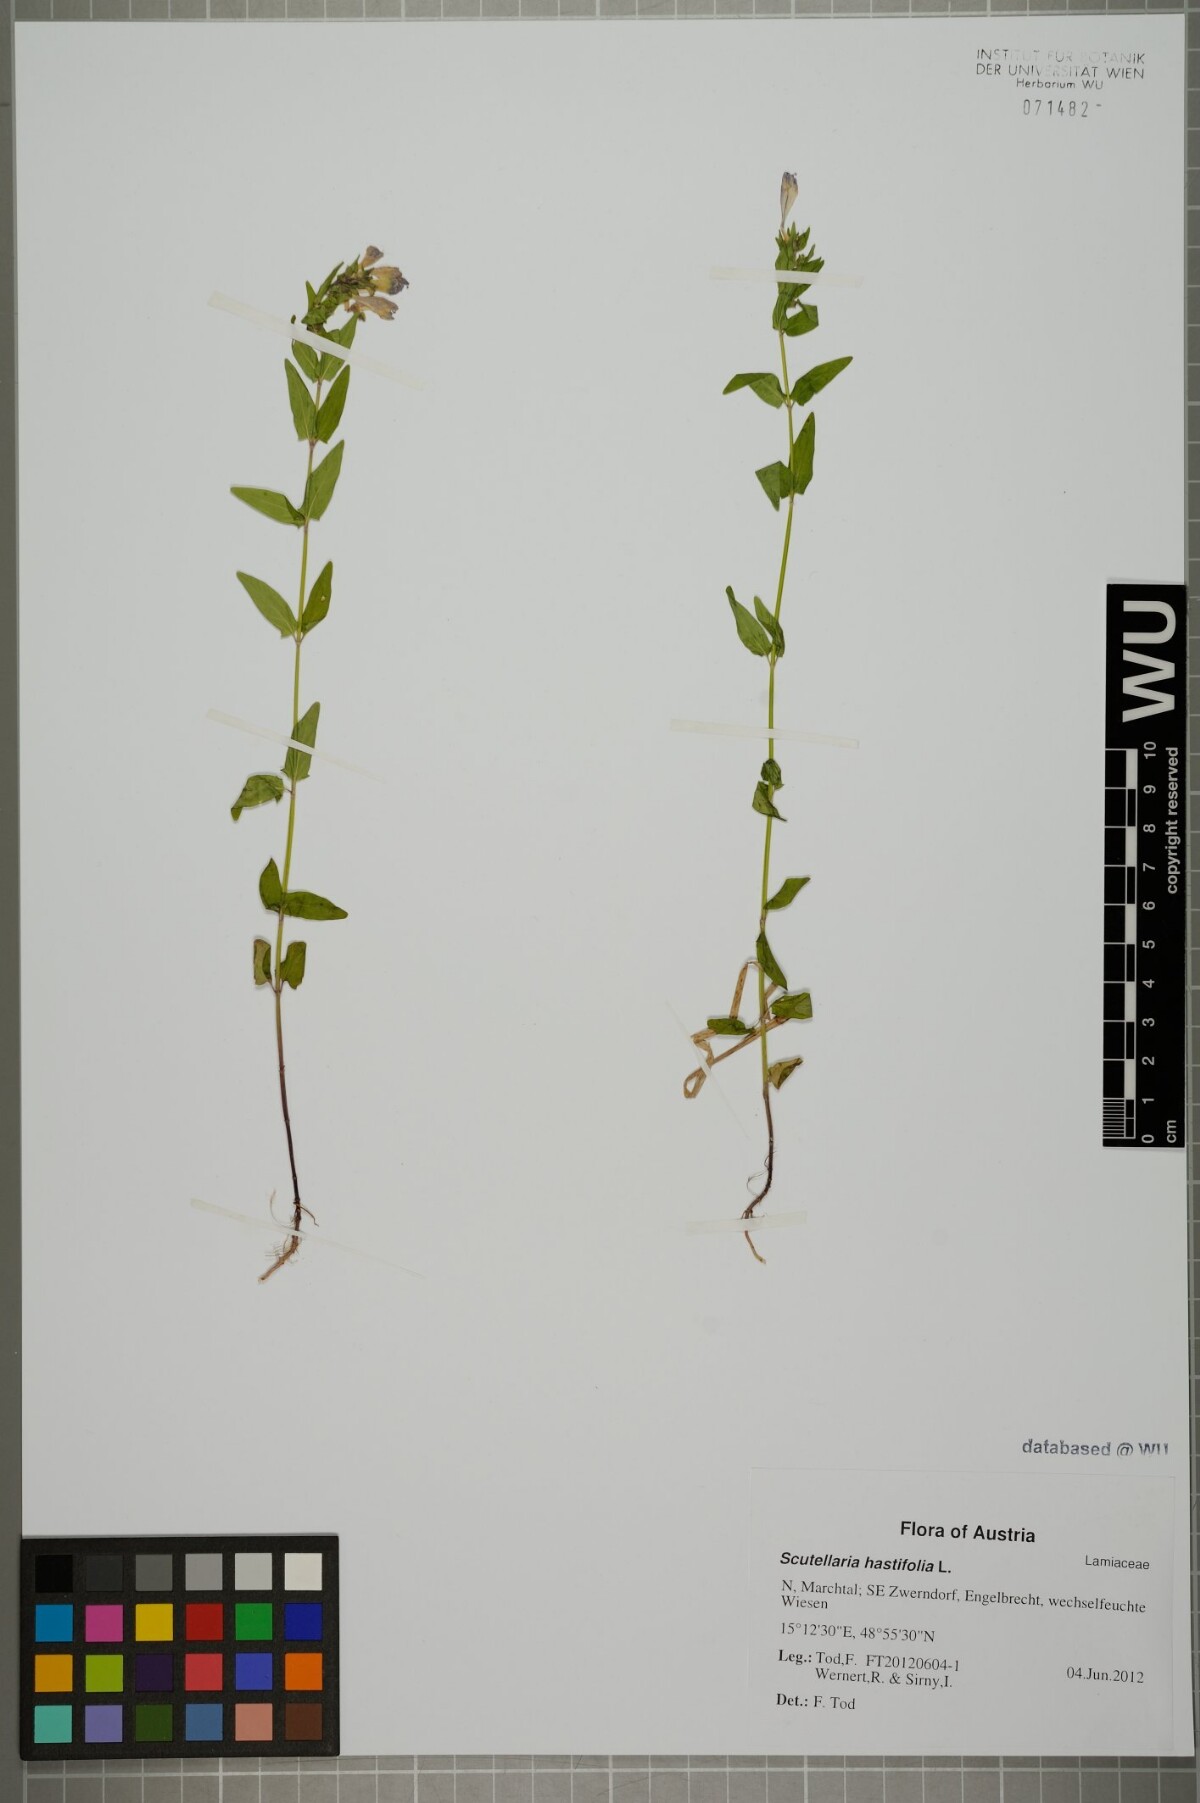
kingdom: Plantae
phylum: Tracheophyta
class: Magnoliopsida
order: Lamiales
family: Lamiaceae
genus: Scutellaria
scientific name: Scutellaria hastifolia
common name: Norfolk skullcap
